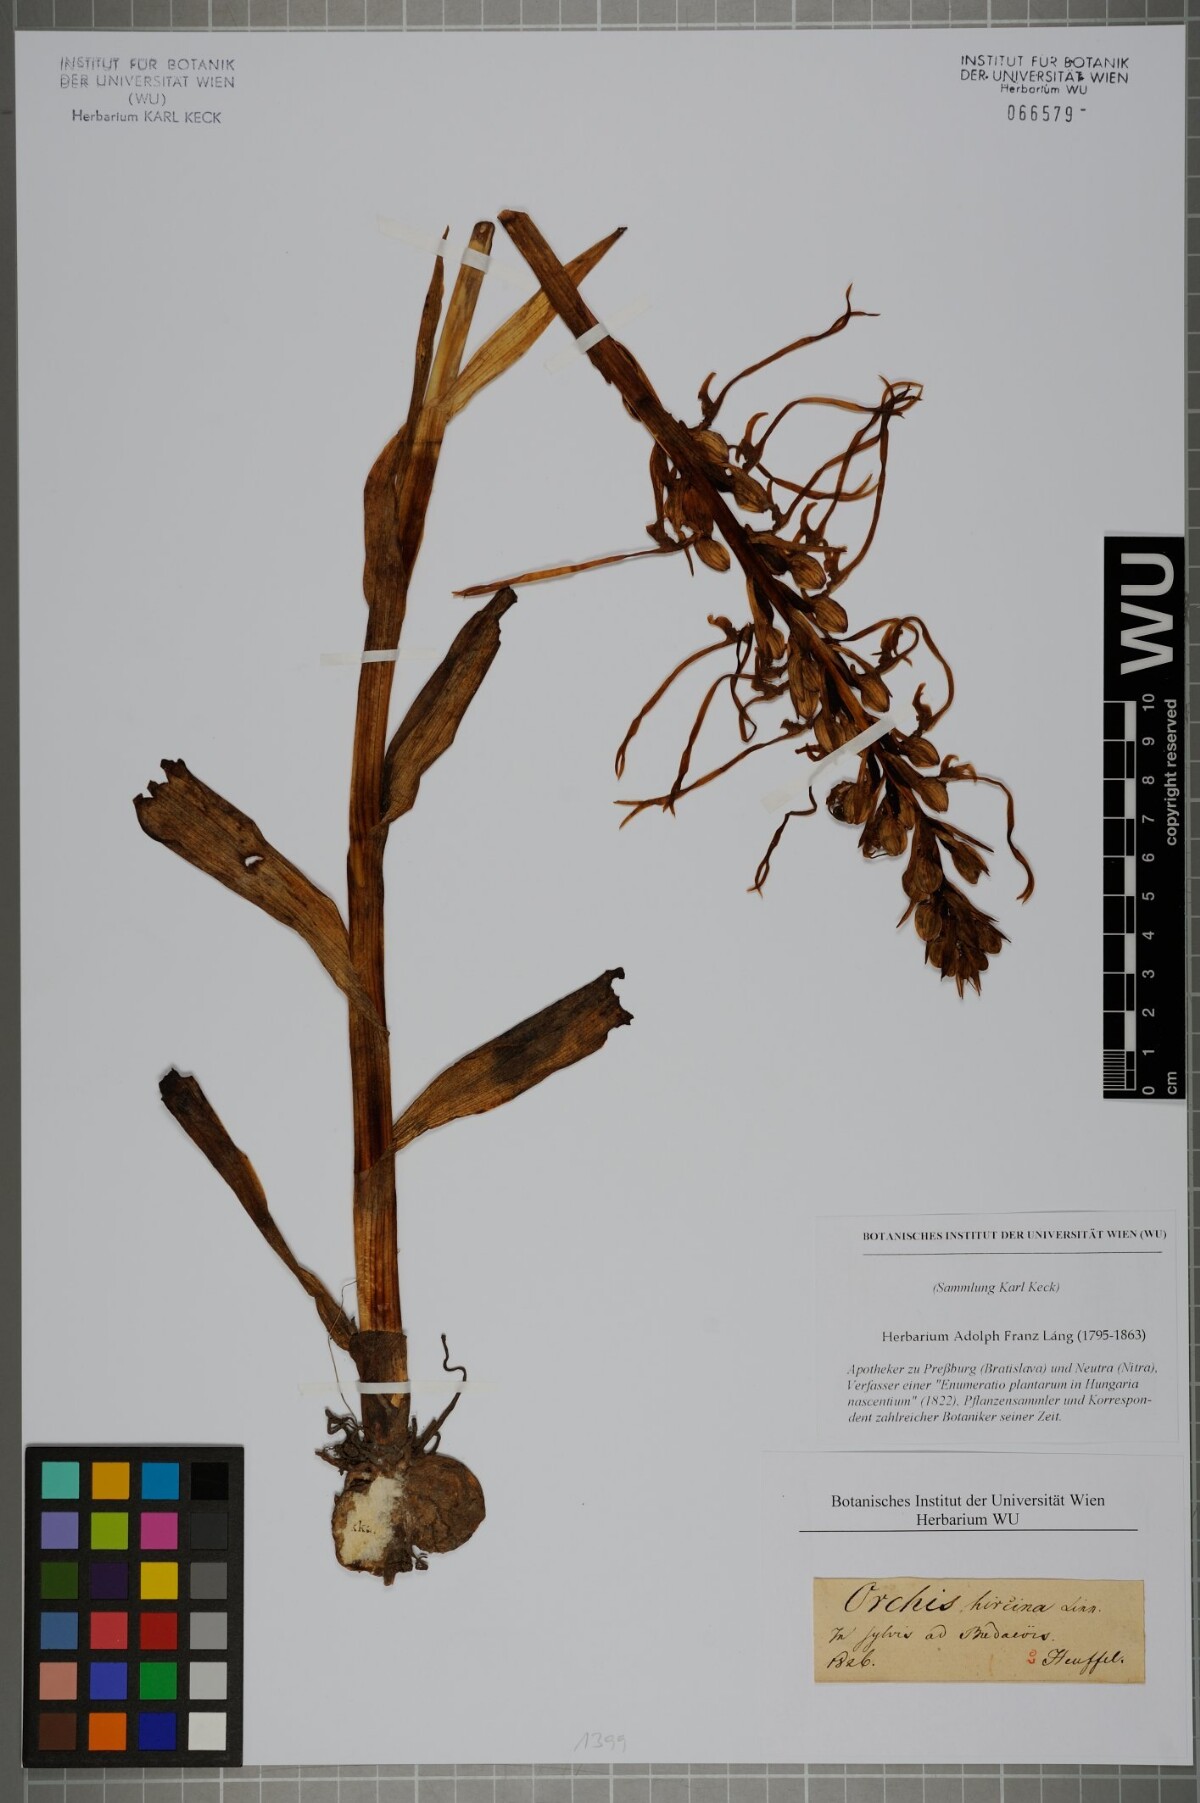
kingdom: Plantae
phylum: Tracheophyta
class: Liliopsida
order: Asparagales
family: Orchidaceae
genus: Himantoglossum
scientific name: Himantoglossum hircinum
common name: Lizard orchid
